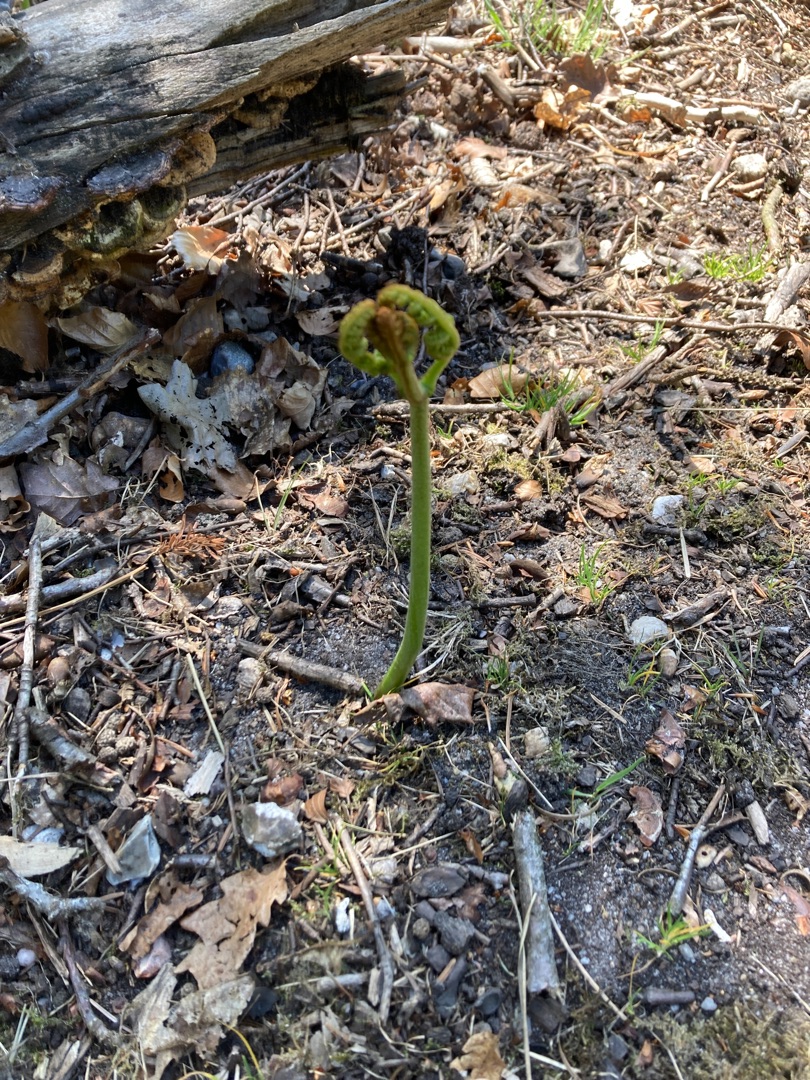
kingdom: Plantae
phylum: Tracheophyta
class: Polypodiopsida
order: Polypodiales
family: Dennstaedtiaceae
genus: Pteridium
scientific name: Pteridium aquilinum
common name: Ørnebregne
